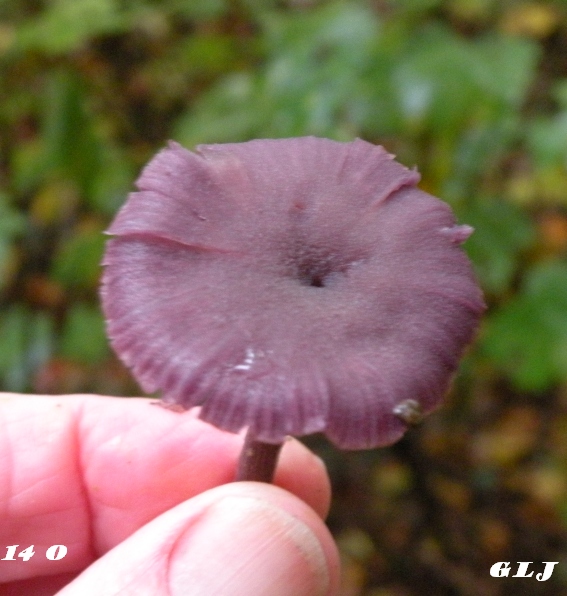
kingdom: Fungi
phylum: Basidiomycota
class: Agaricomycetes
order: Agaricales
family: Hydnangiaceae
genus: Laccaria
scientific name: Laccaria amethystina
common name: violet ametysthat
